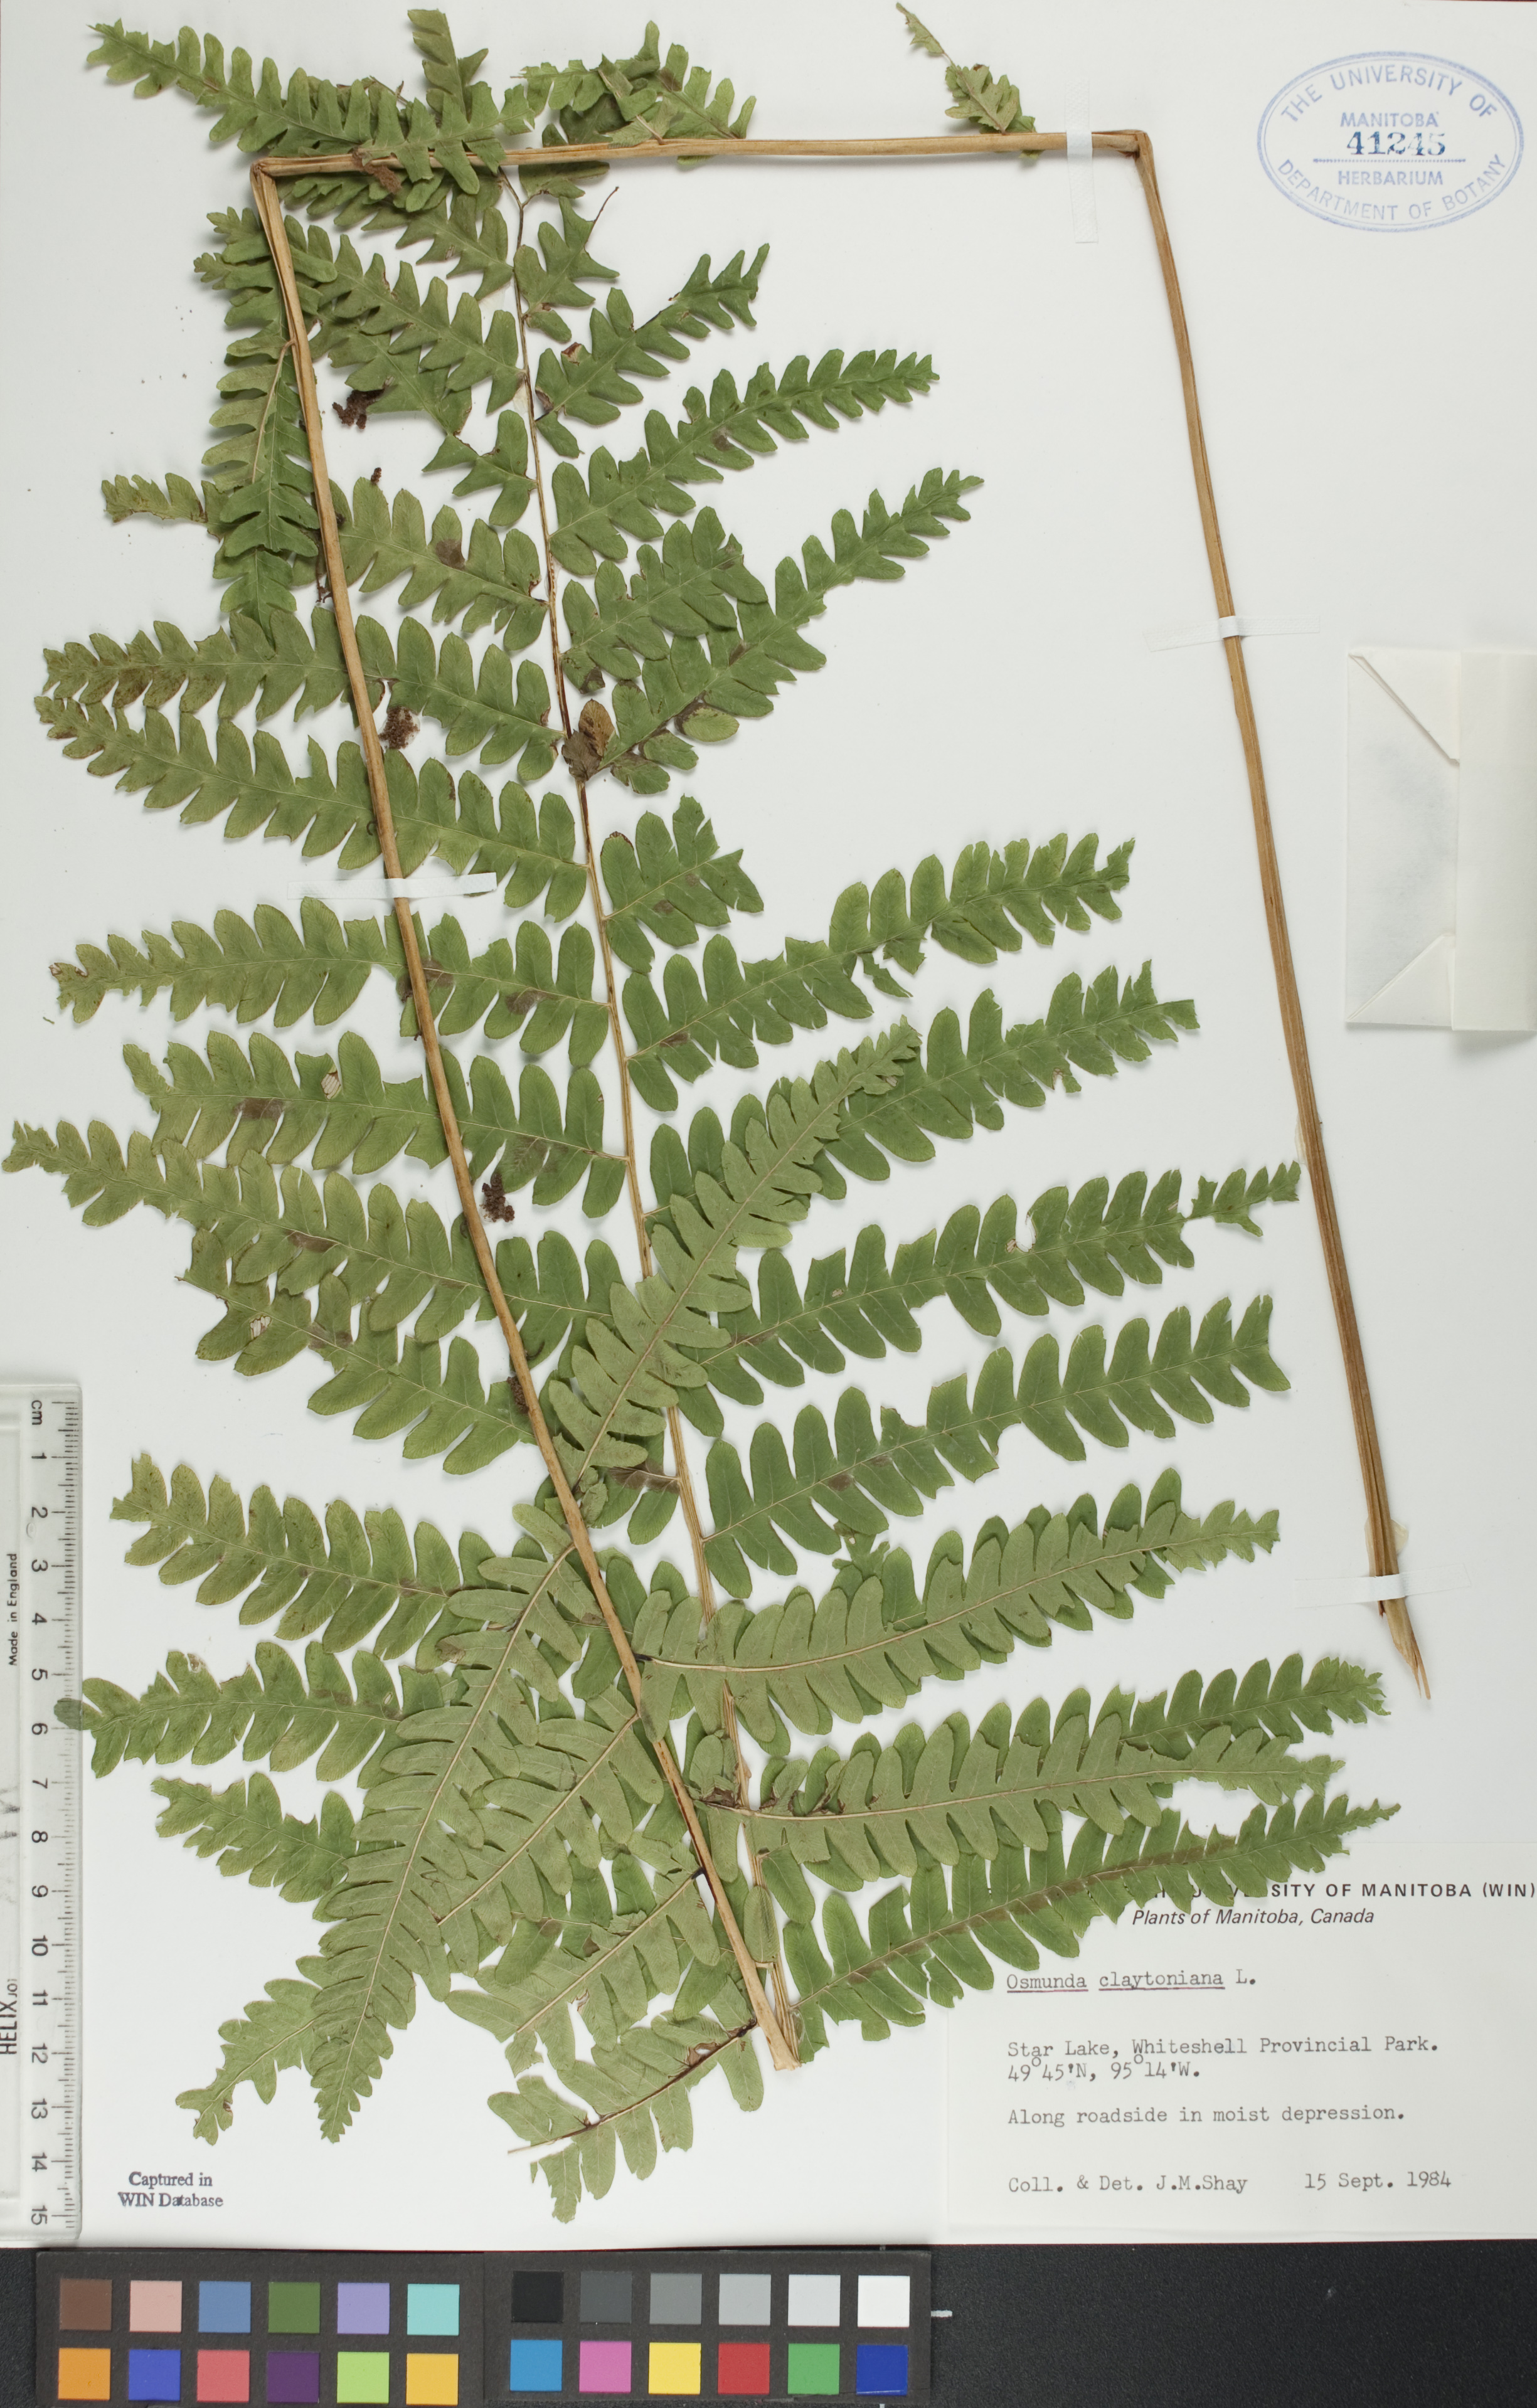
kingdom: Plantae
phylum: Tracheophyta
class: Polypodiopsida
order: Osmundales
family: Osmundaceae
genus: Claytosmunda
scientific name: Claytosmunda claytoniana
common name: Clayton's fern
